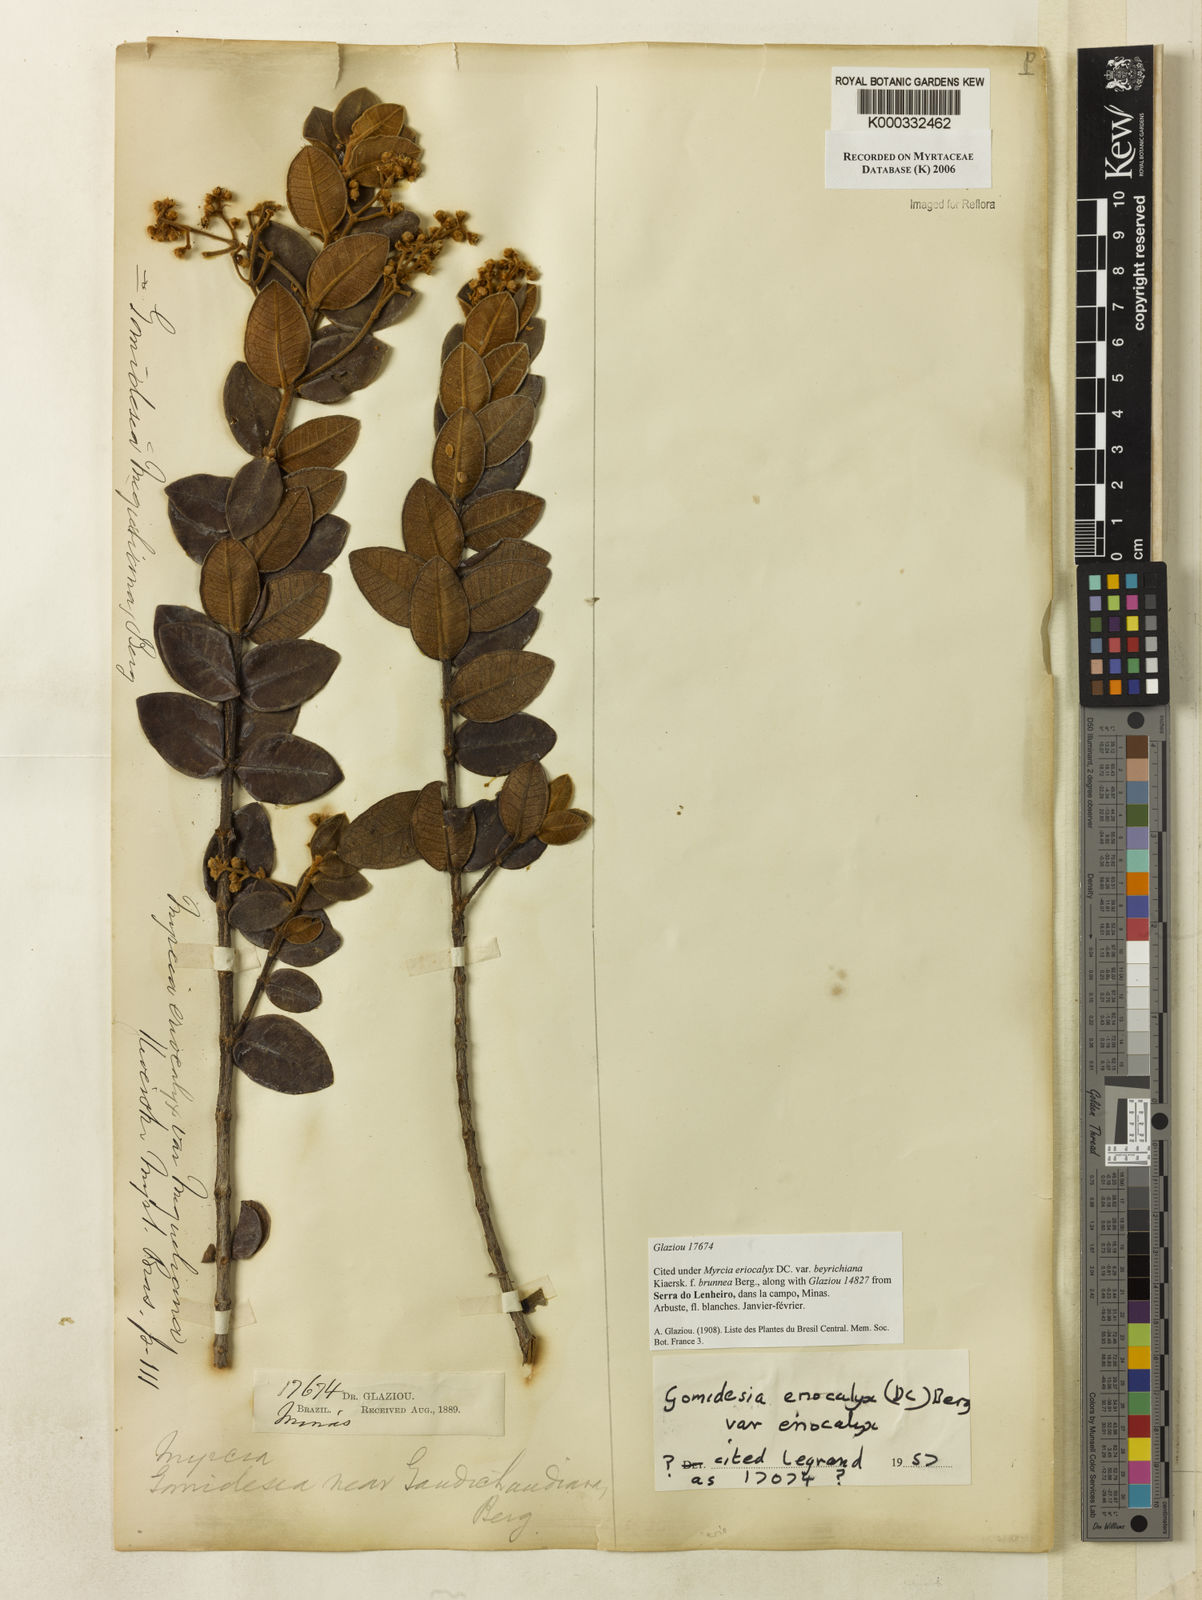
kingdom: Plantae
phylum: Tracheophyta
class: Magnoliopsida
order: Myrtales
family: Myrtaceae
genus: Myrcia
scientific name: Myrcia eriocalyx
